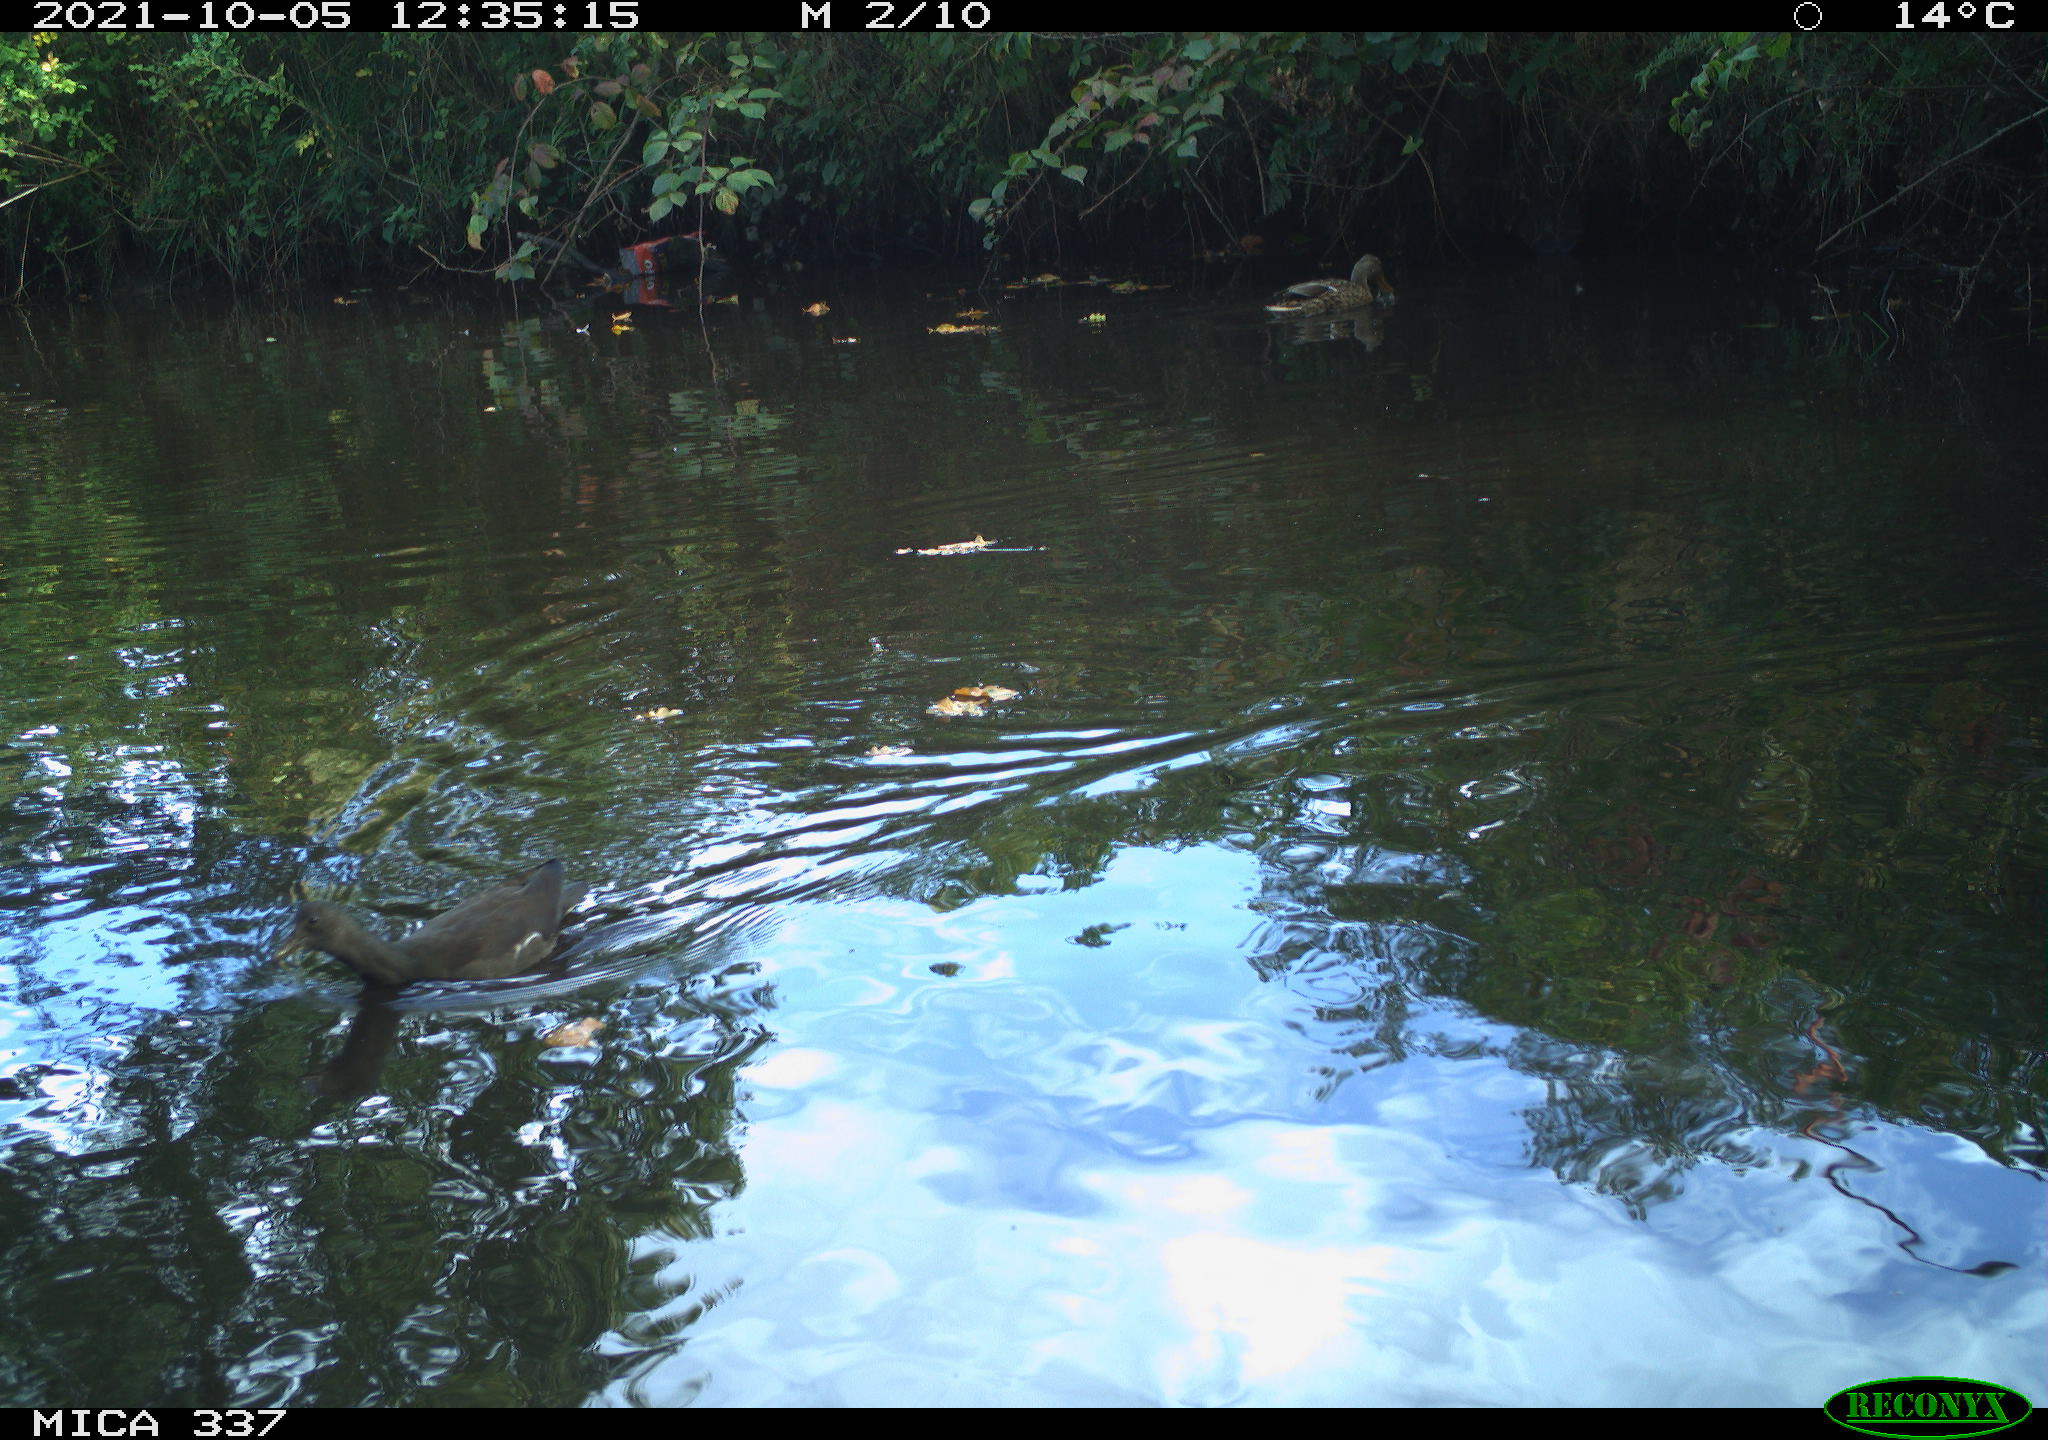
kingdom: Animalia
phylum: Chordata
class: Aves
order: Anseriformes
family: Anatidae
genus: Anas
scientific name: Anas platyrhynchos
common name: Mallard
